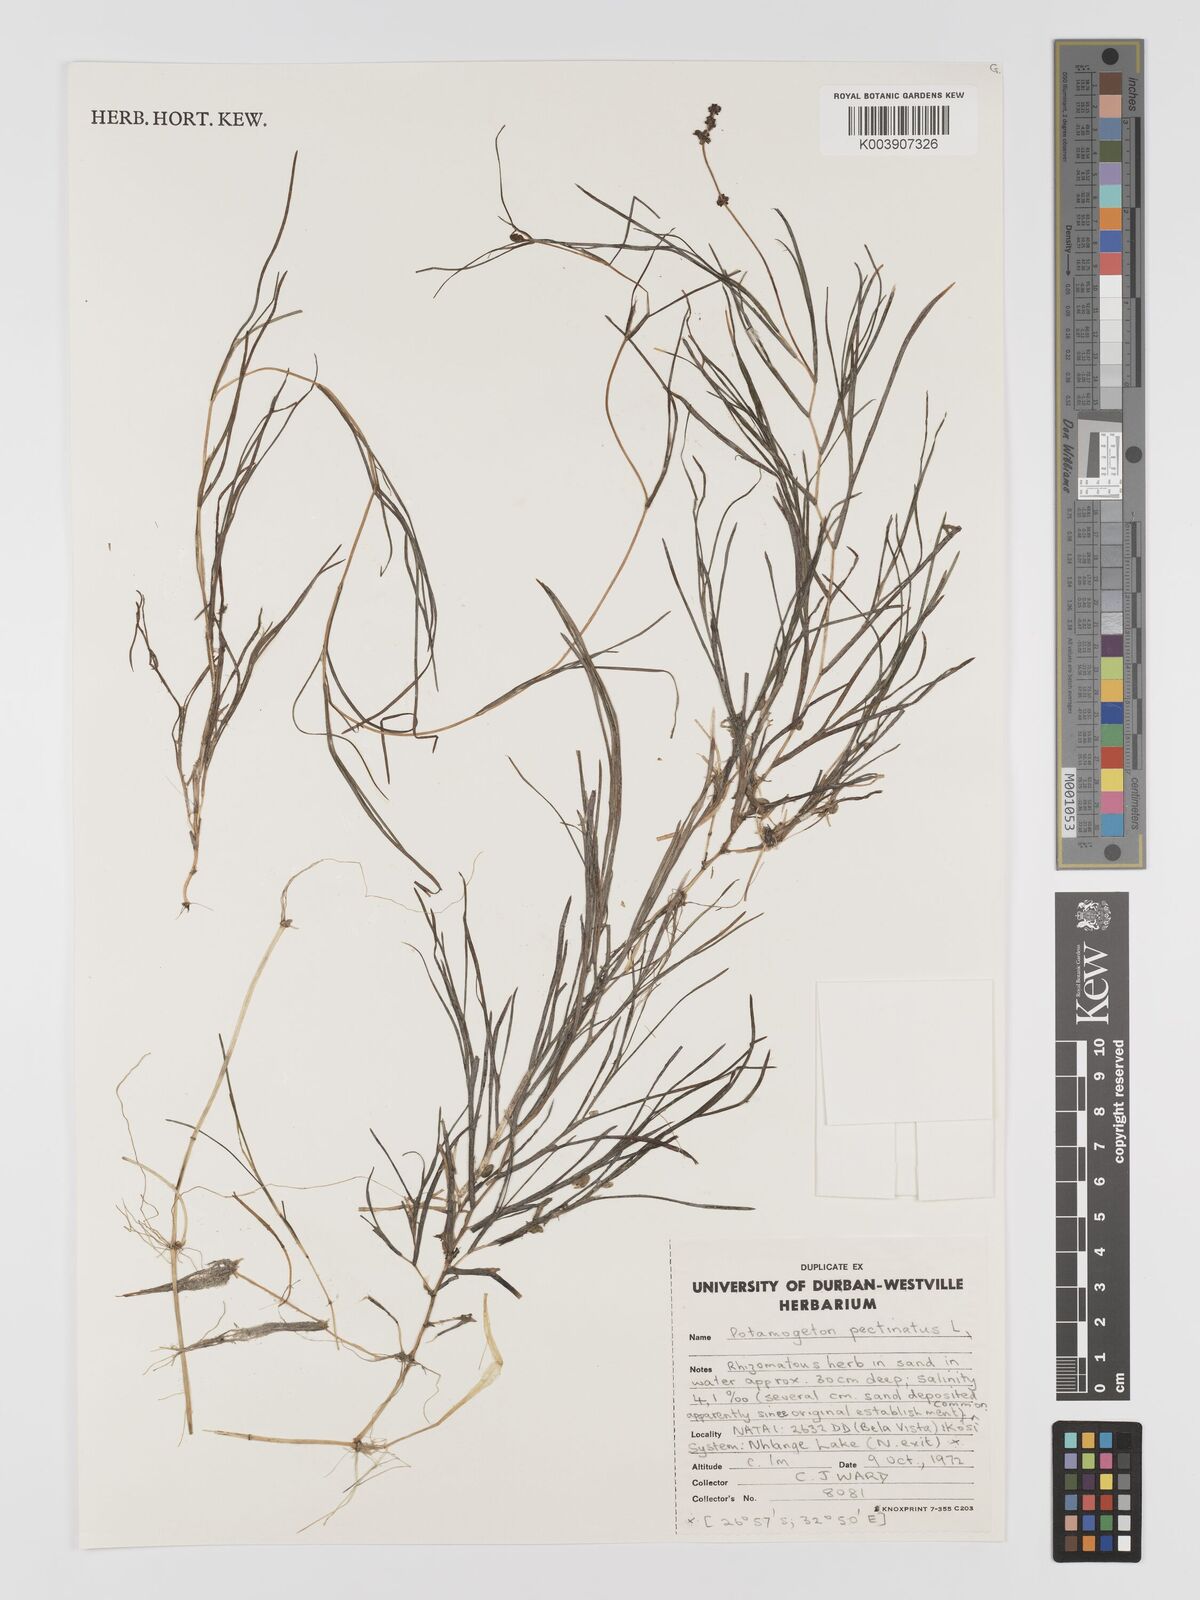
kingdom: Plantae
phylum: Tracheophyta
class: Liliopsida
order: Alismatales
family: Potamogetonaceae
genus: Stuckenia
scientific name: Stuckenia pectinata
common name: Sago pondweed
